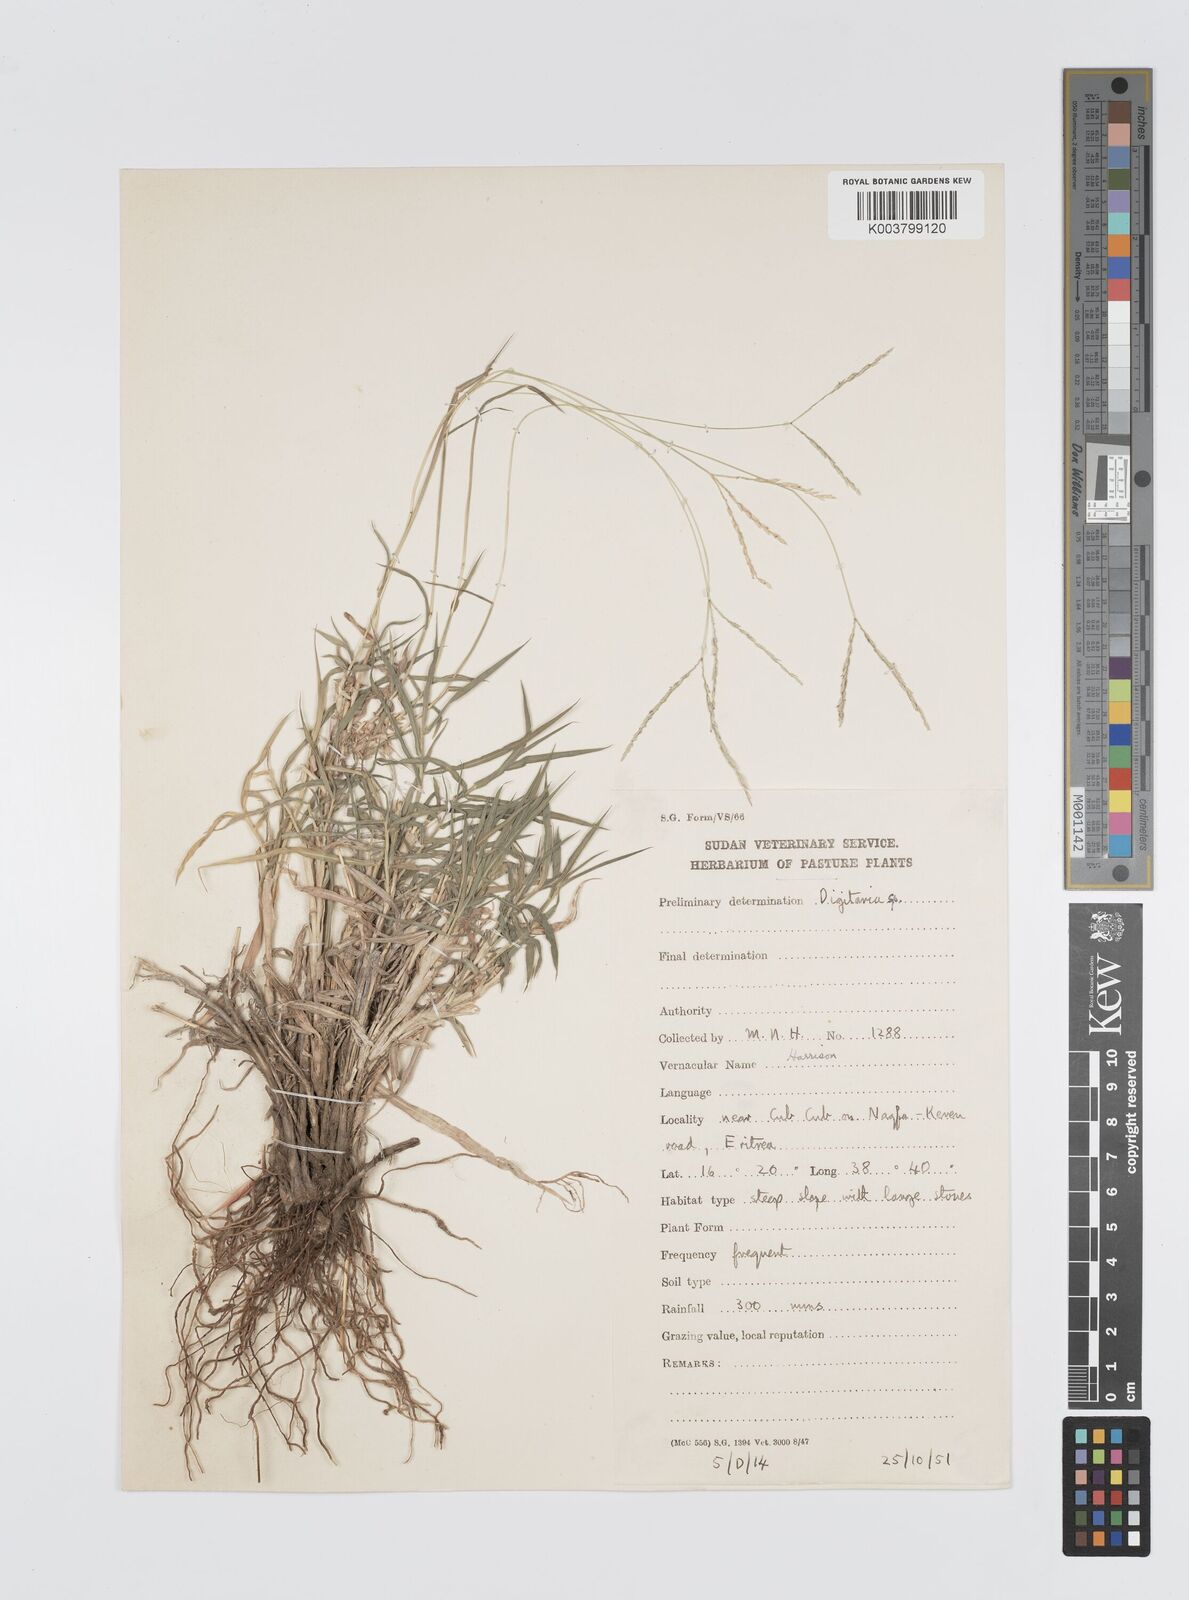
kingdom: Plantae
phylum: Tracheophyta
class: Liliopsida
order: Poales
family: Poaceae
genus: Digitaria
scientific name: Digitaria macroblephara
